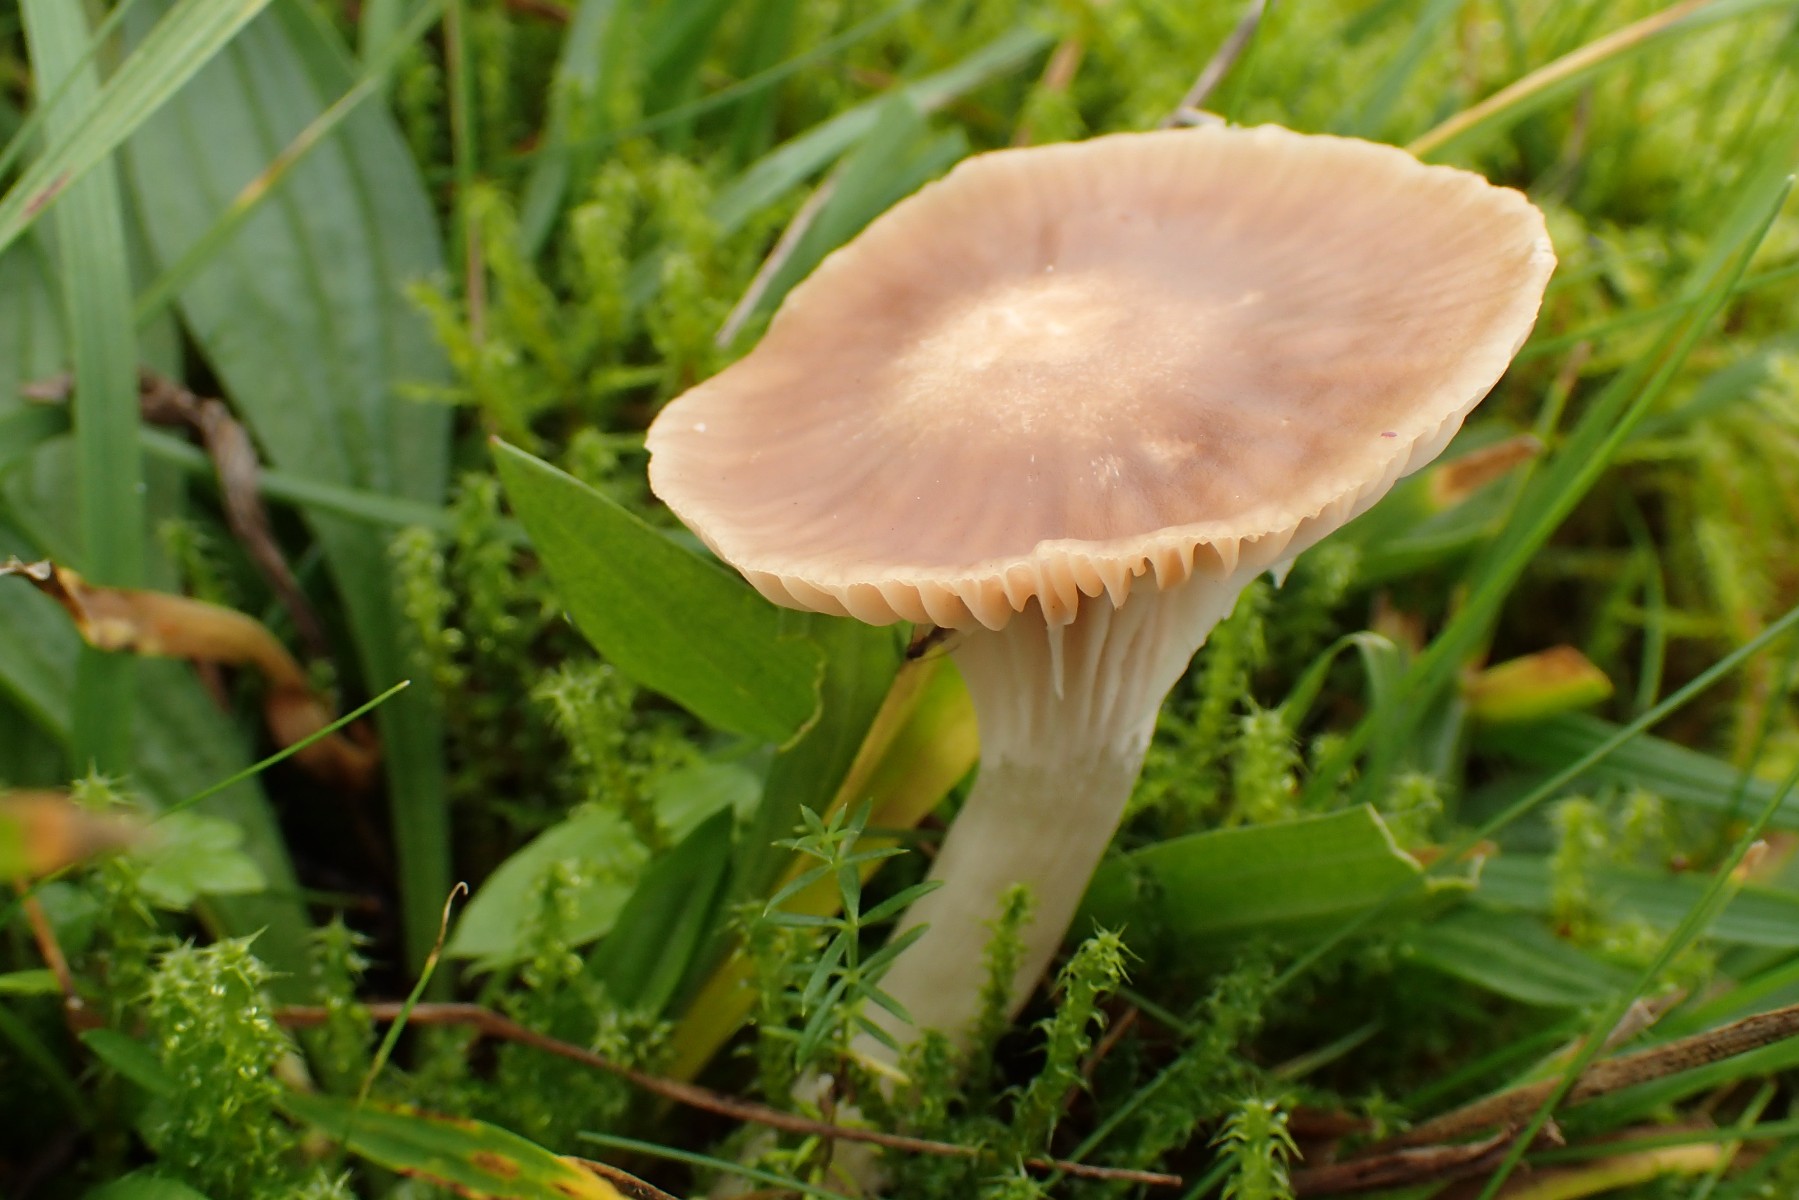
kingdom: Fungi
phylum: Basidiomycota
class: Agaricomycetes
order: Agaricales
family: Hygrophoraceae
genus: Cuphophyllus
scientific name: Cuphophyllus colemannianus
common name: rødbrun vokshat
